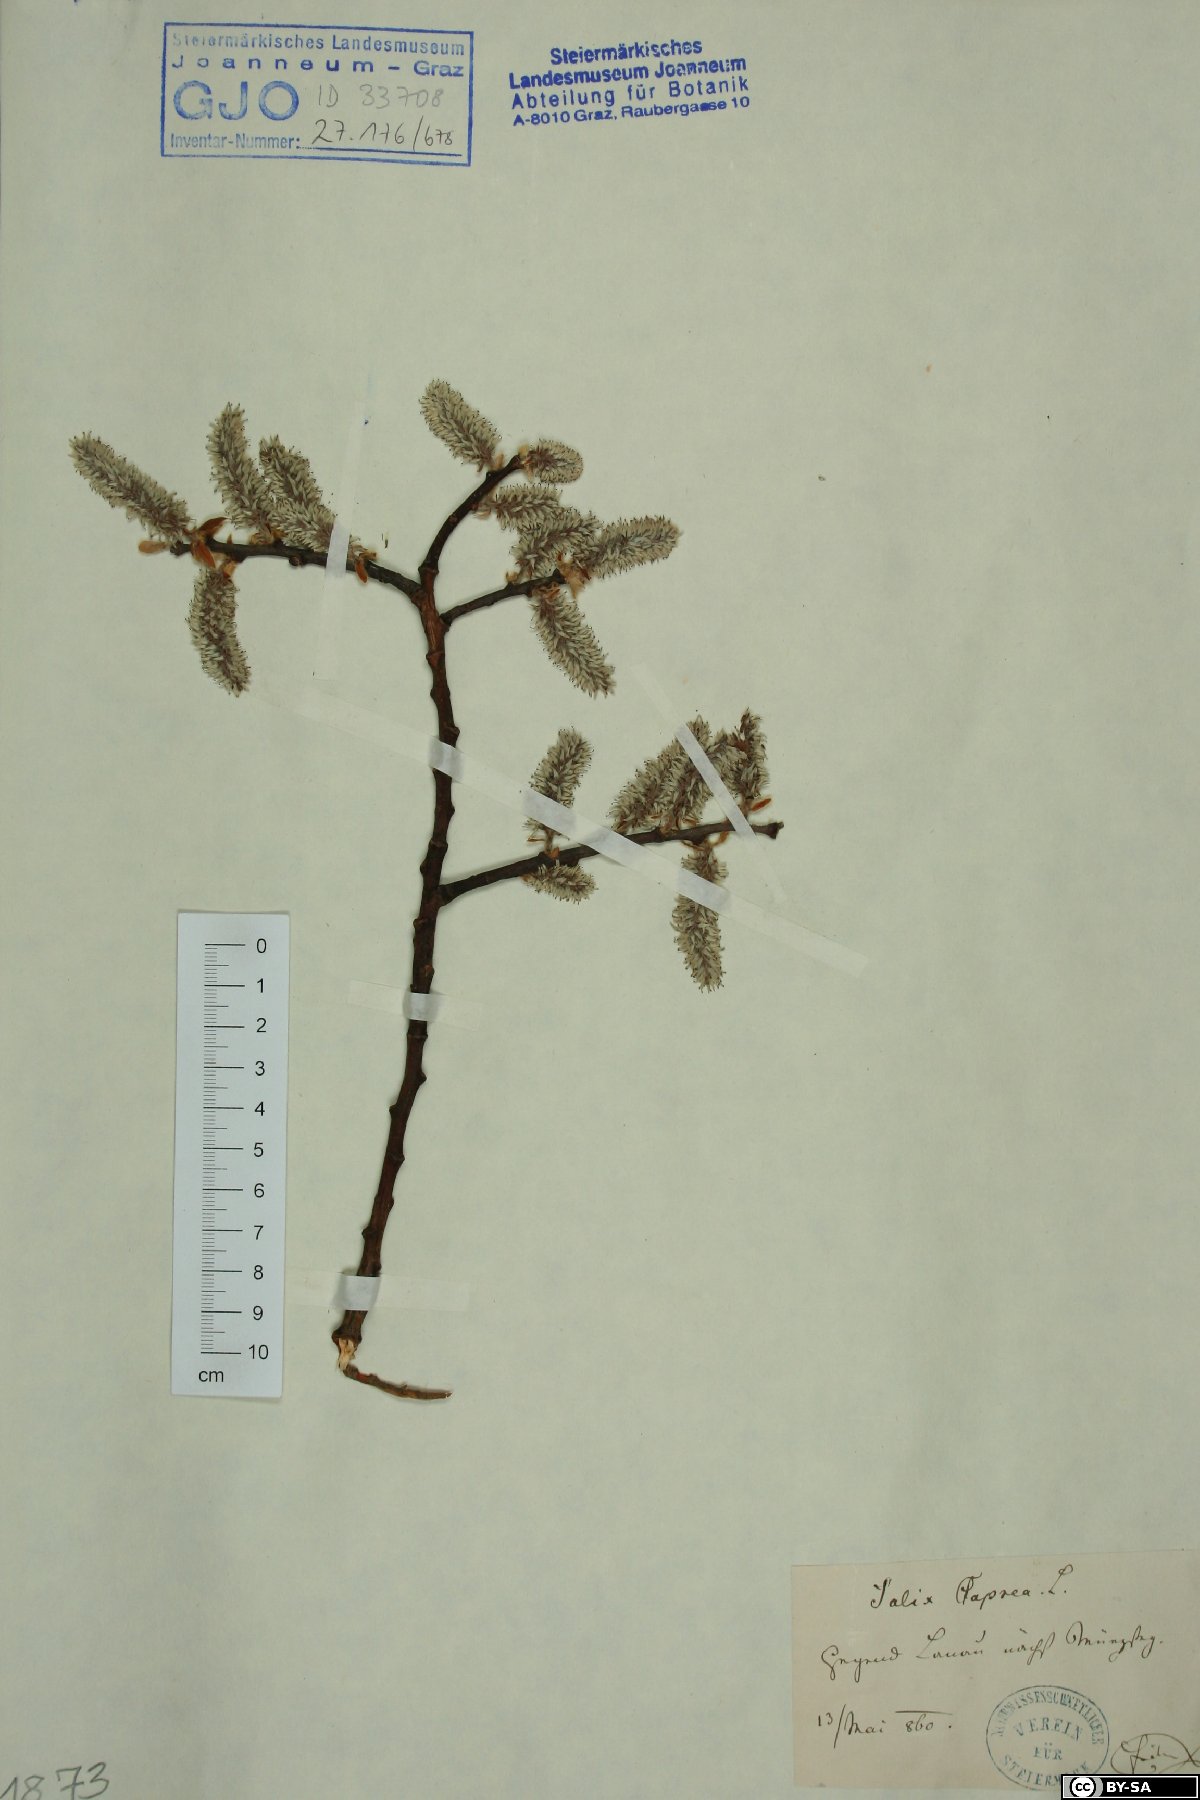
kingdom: Plantae
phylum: Tracheophyta
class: Magnoliopsida
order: Malpighiales
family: Salicaceae
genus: Salix
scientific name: Salix caprea
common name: Goat willow
